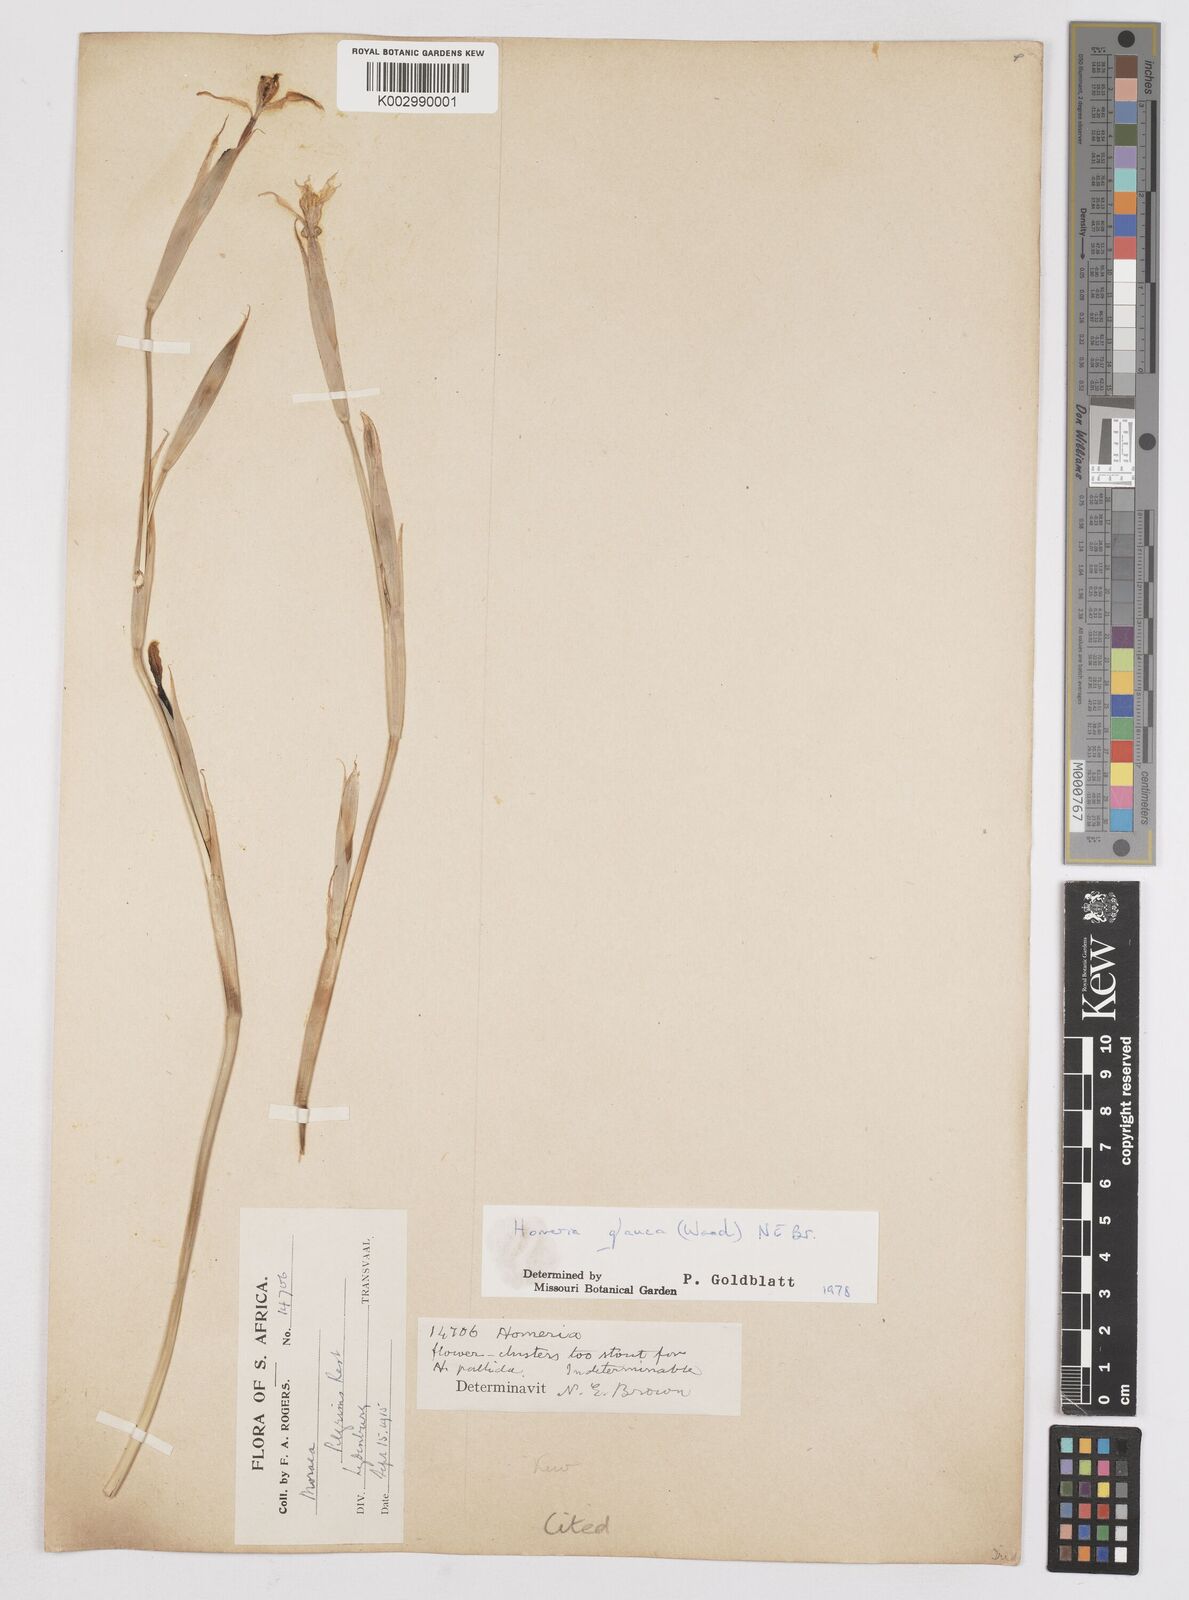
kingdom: Plantae
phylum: Tracheophyta
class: Liliopsida
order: Asparagales
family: Iridaceae
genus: Moraea
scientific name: Moraea pallida
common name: Yellow tulp
